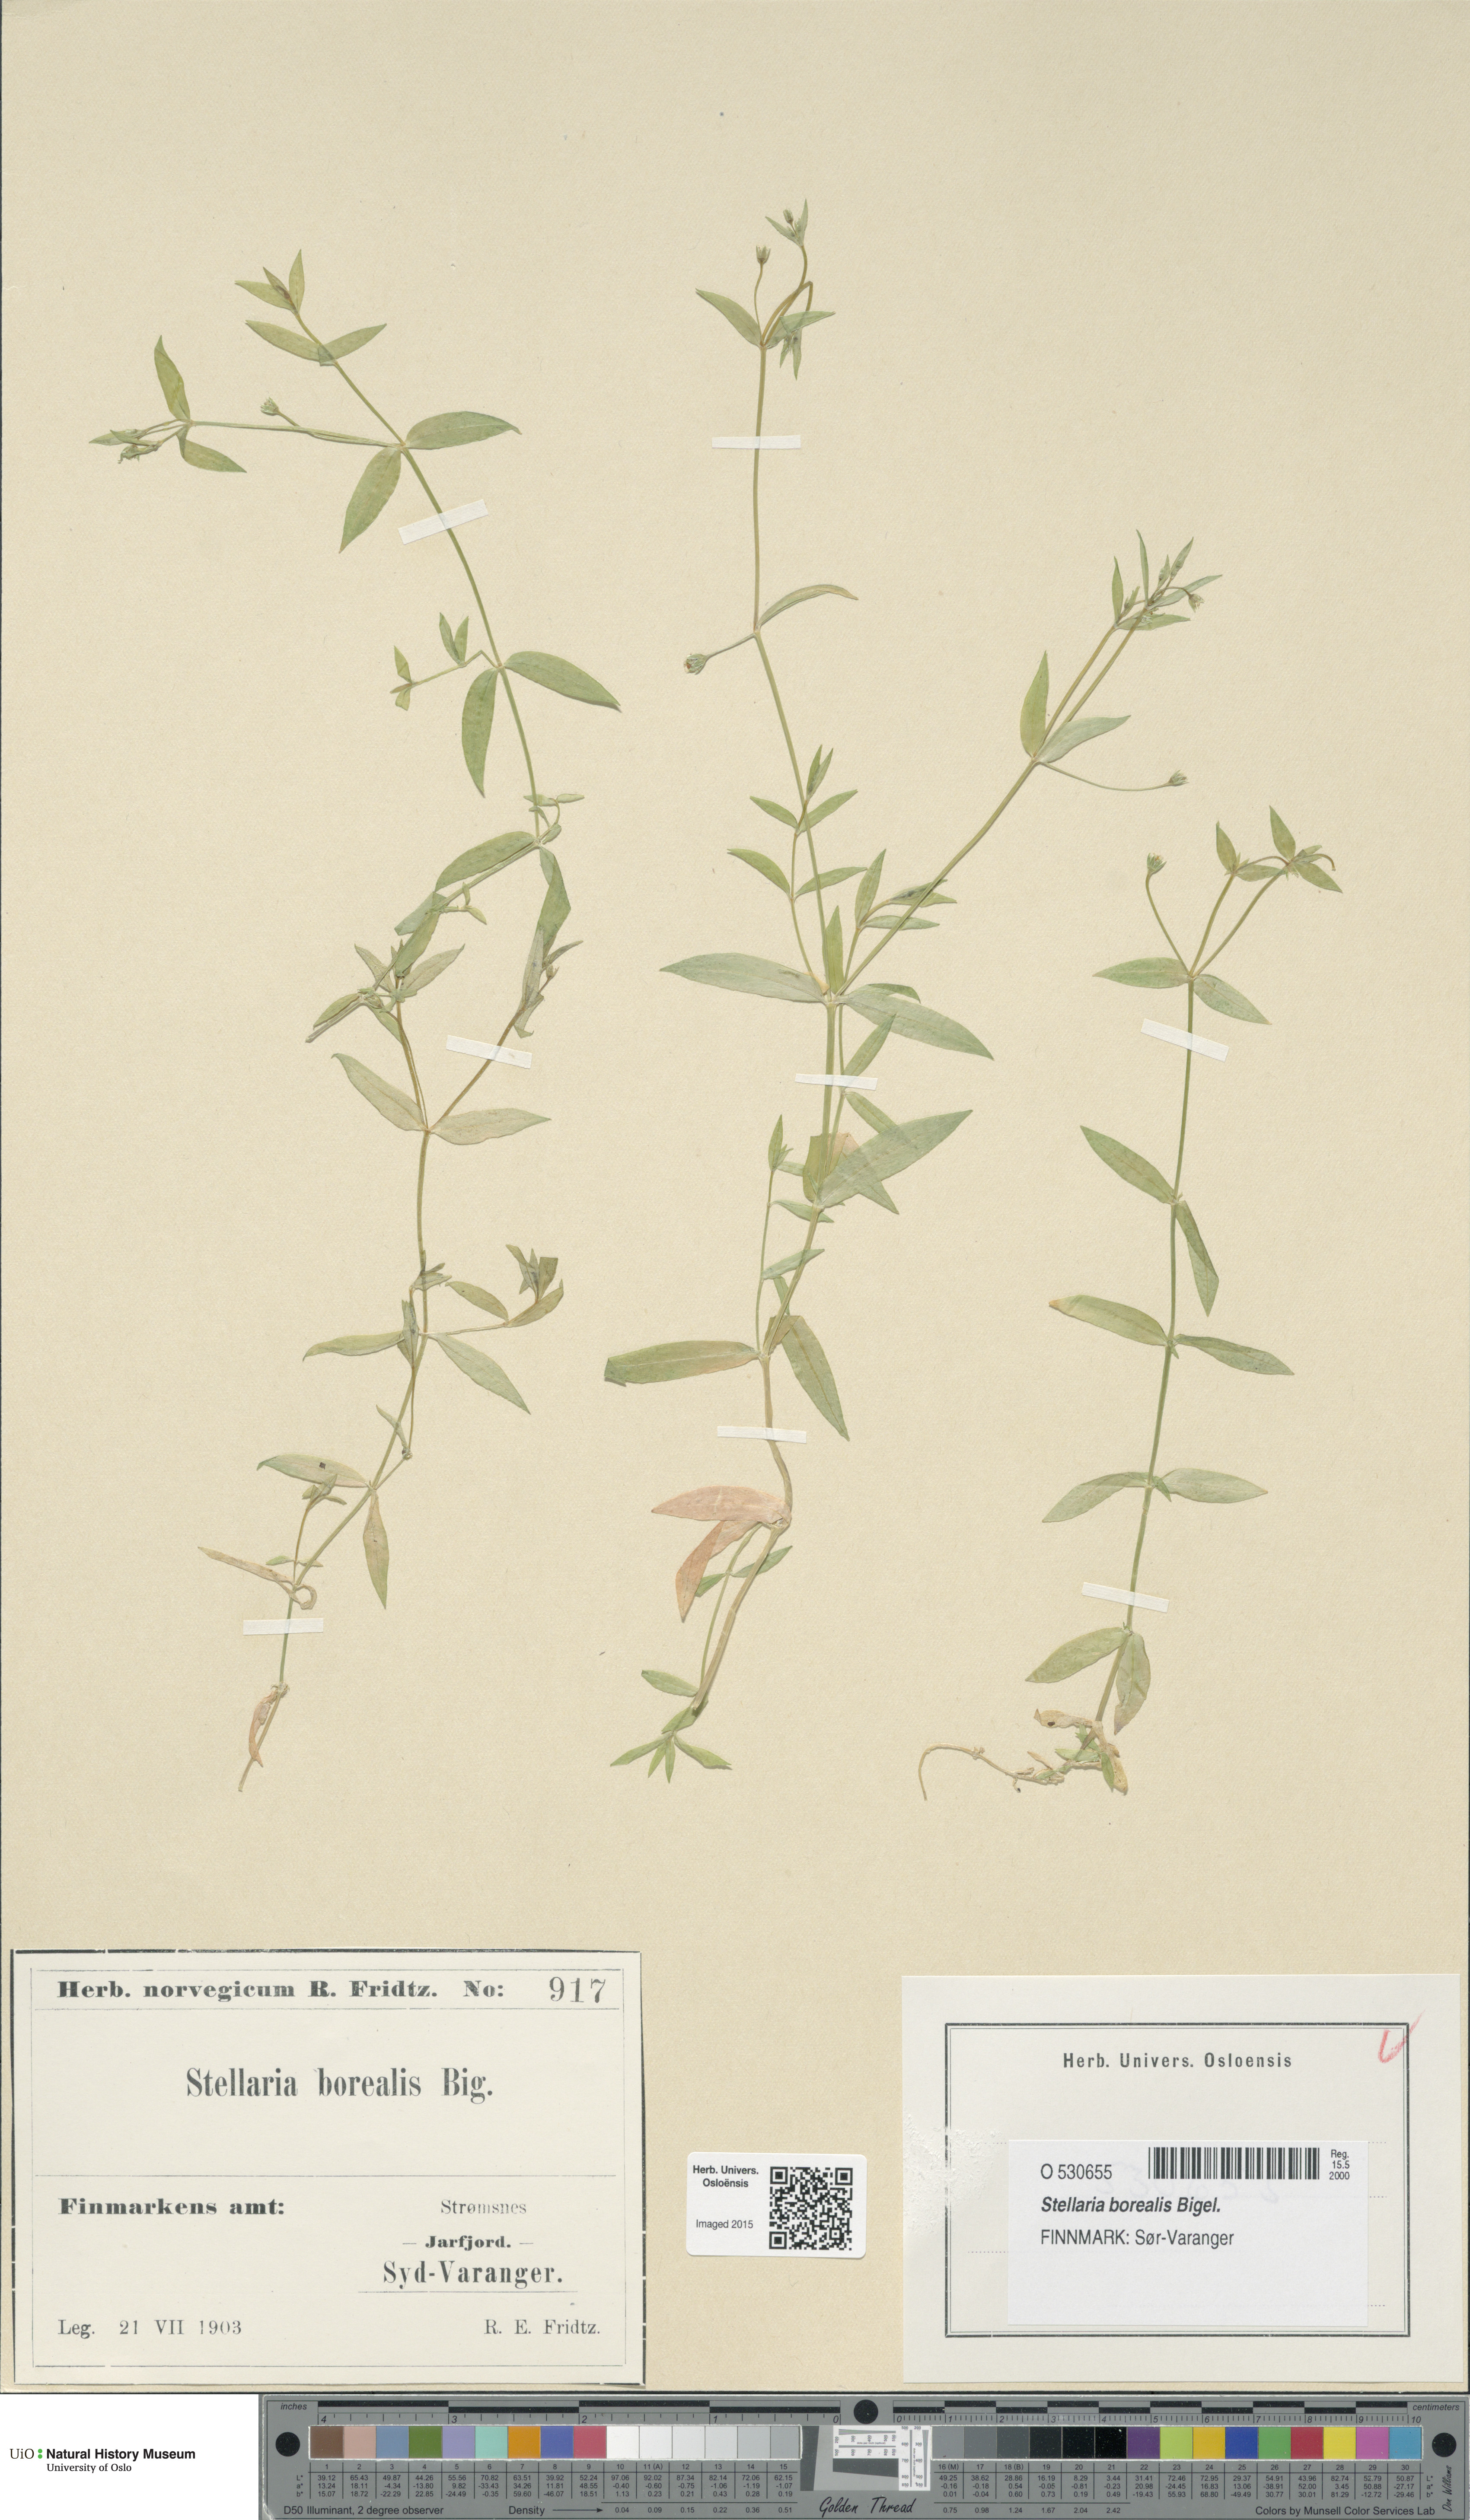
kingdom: Plantae
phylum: Tracheophyta
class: Magnoliopsida
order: Caryophyllales
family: Caryophyllaceae
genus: Stellaria
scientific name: Stellaria borealis
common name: Boreal starwort
